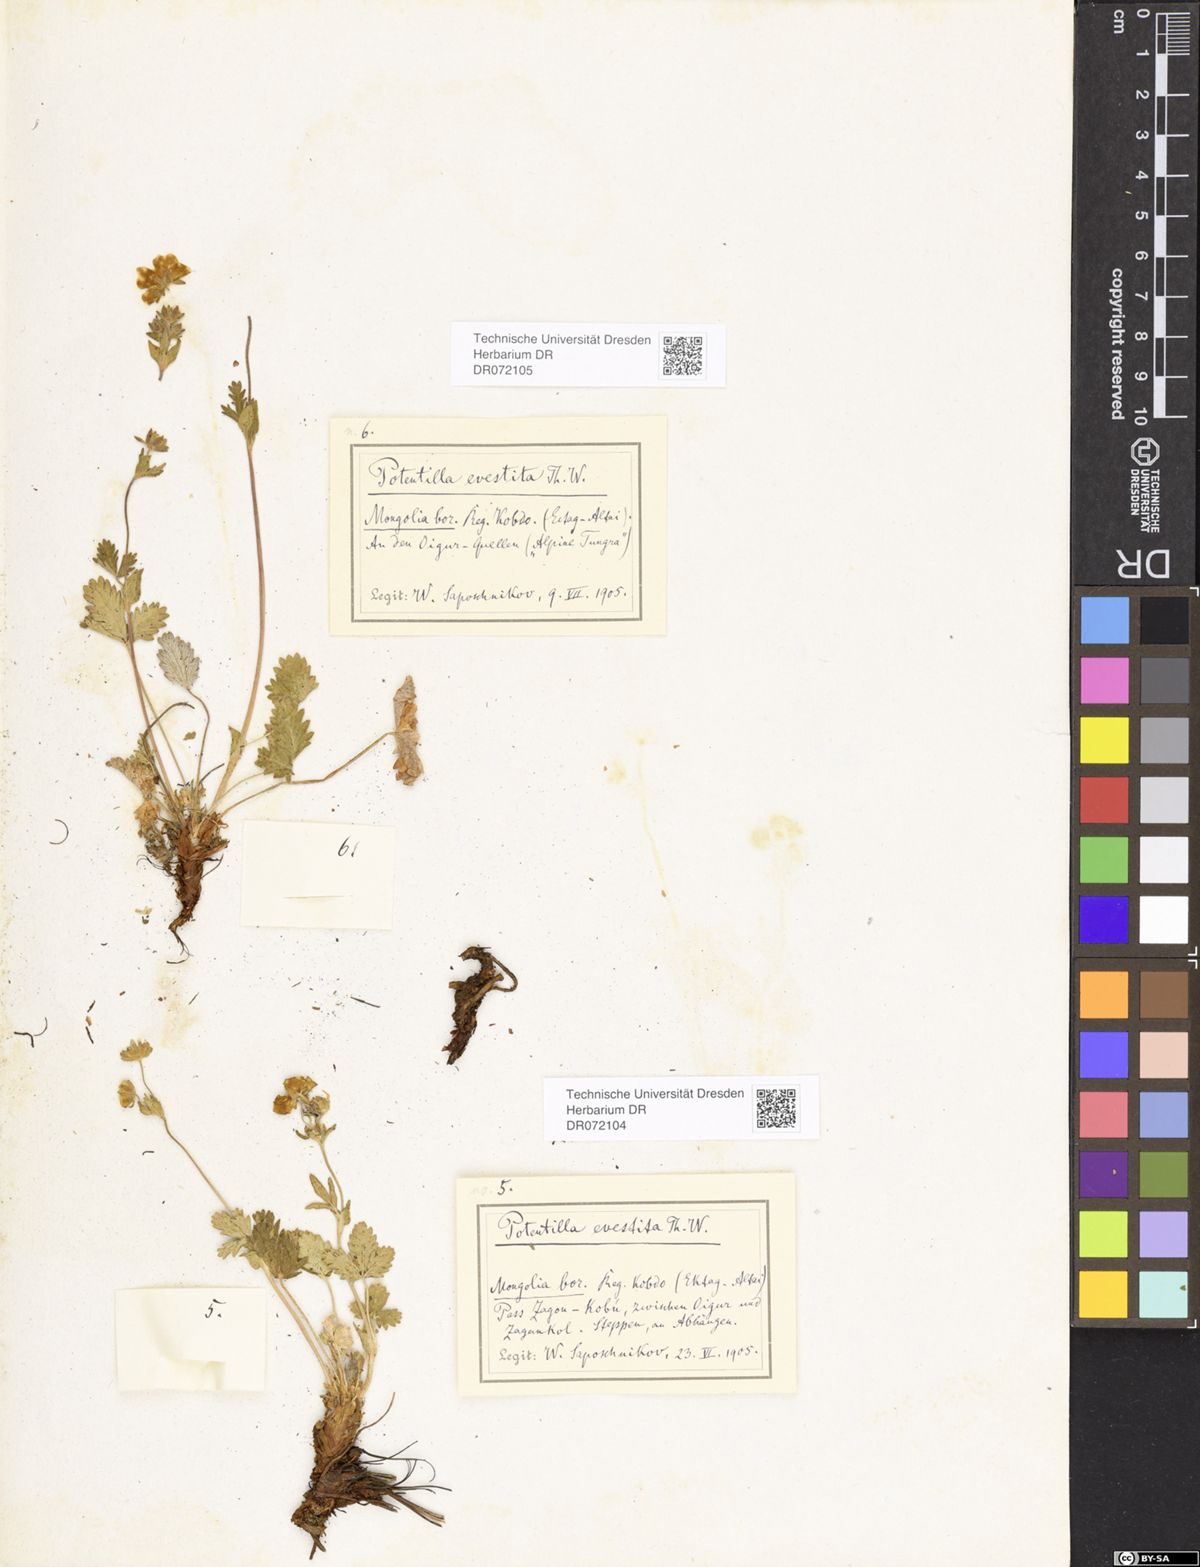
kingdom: Plantae
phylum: Tracheophyta
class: Magnoliopsida
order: Rosales
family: Rosaceae
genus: Potentilla
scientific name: Potentilla evestita
